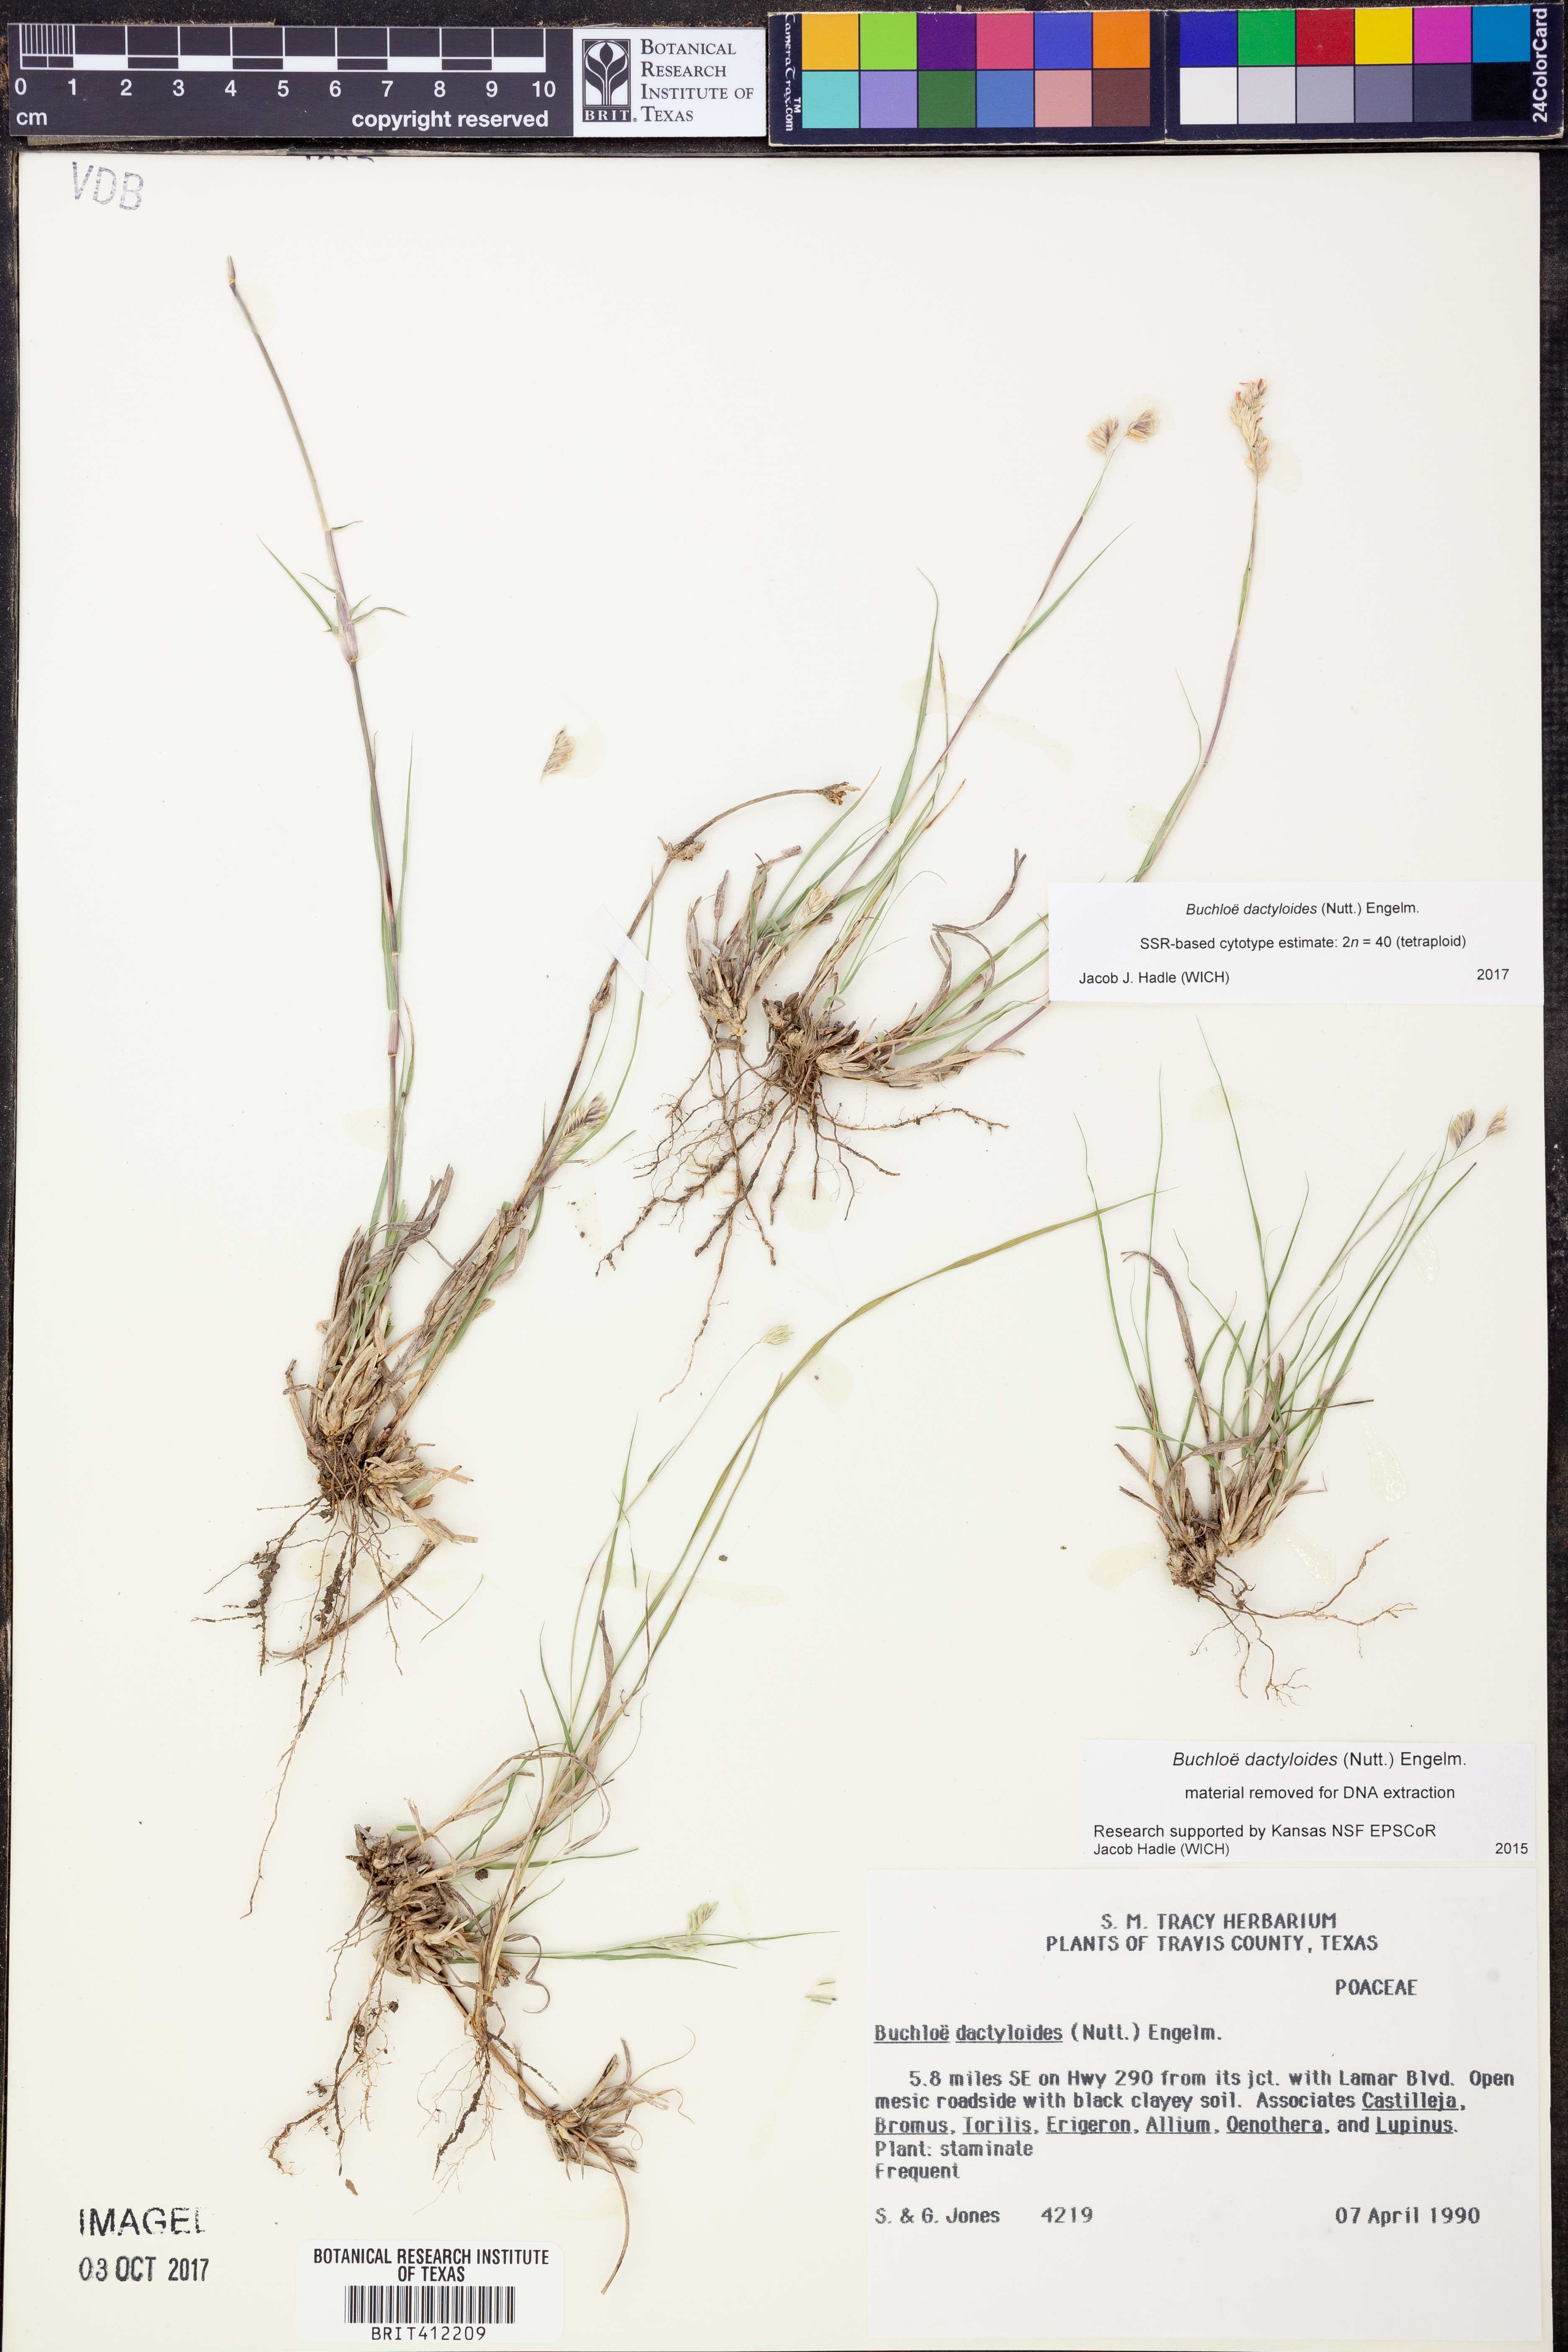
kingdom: Plantae
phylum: Tracheophyta
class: Liliopsida
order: Poales
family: Poaceae
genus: Bouteloua
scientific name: Bouteloua dactyloides
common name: Buffalo grass
